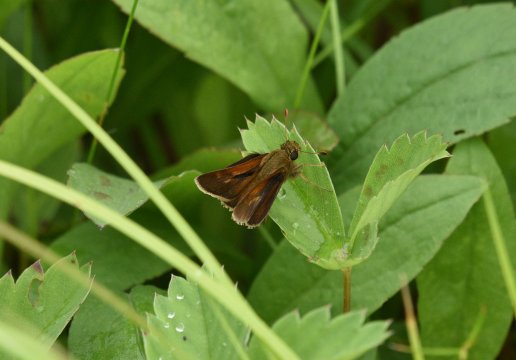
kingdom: Animalia
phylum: Arthropoda
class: Insecta
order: Lepidoptera
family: Hesperiidae
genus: Polites
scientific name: Polites themistocles
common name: Tawny-edged Skipper
